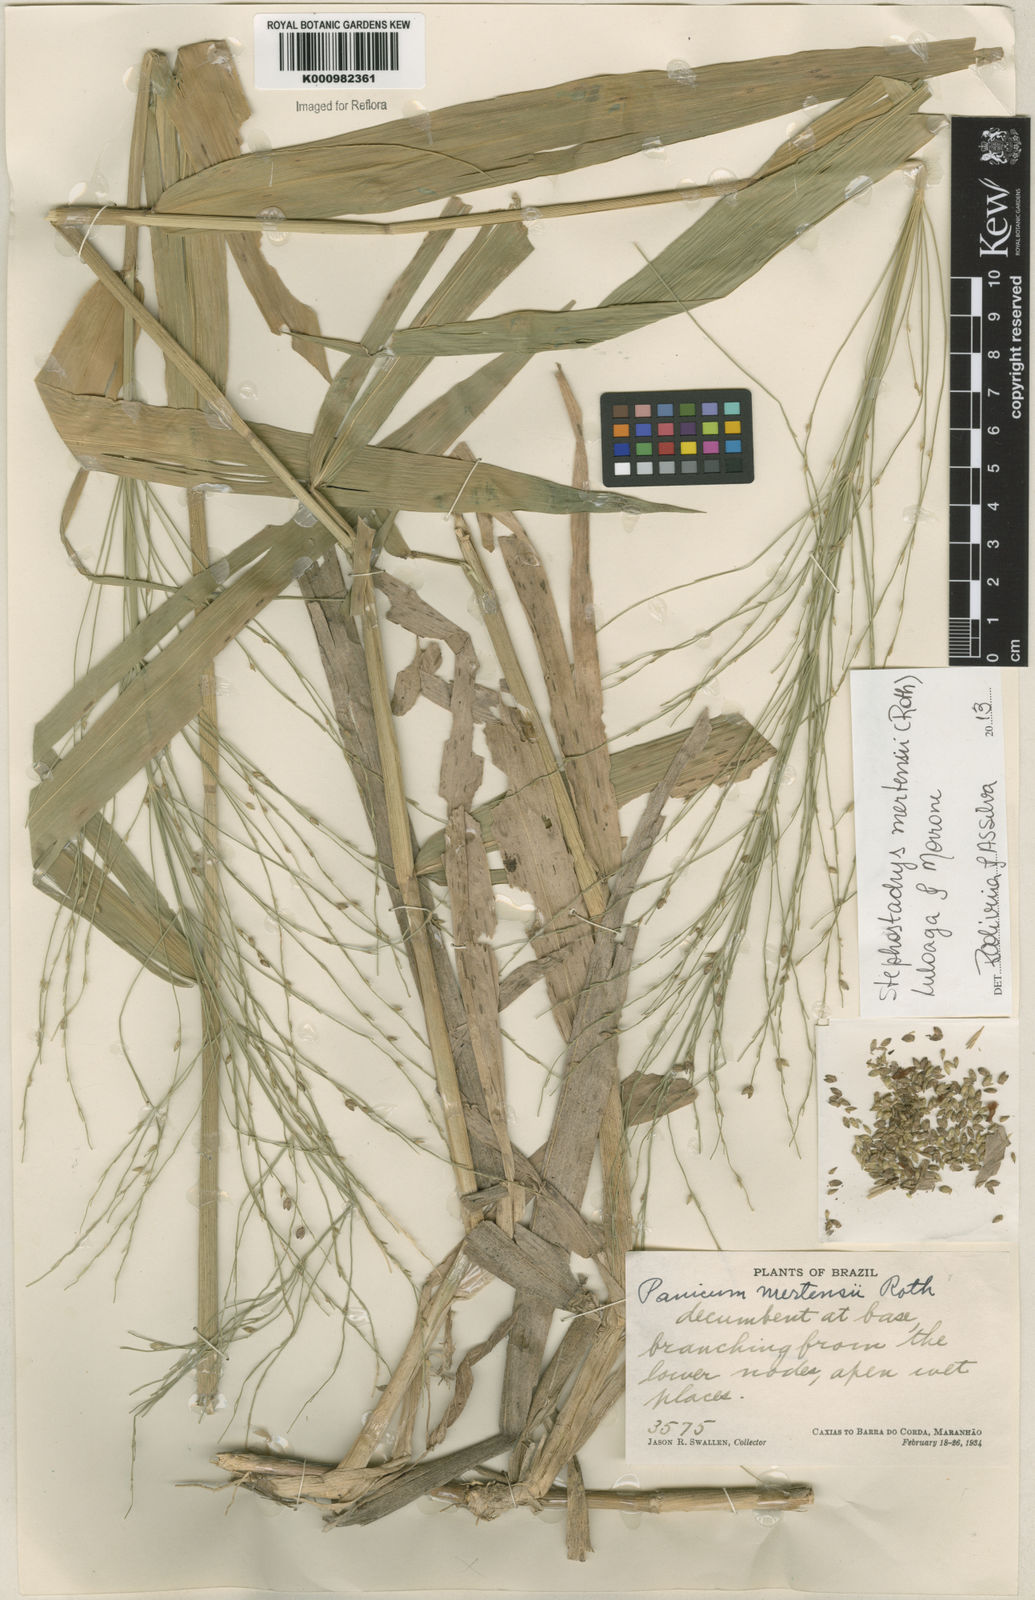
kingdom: Plantae
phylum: Tracheophyta
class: Liliopsida
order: Poales
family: Poaceae
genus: Stephostachys
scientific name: Stephostachys mertensii
